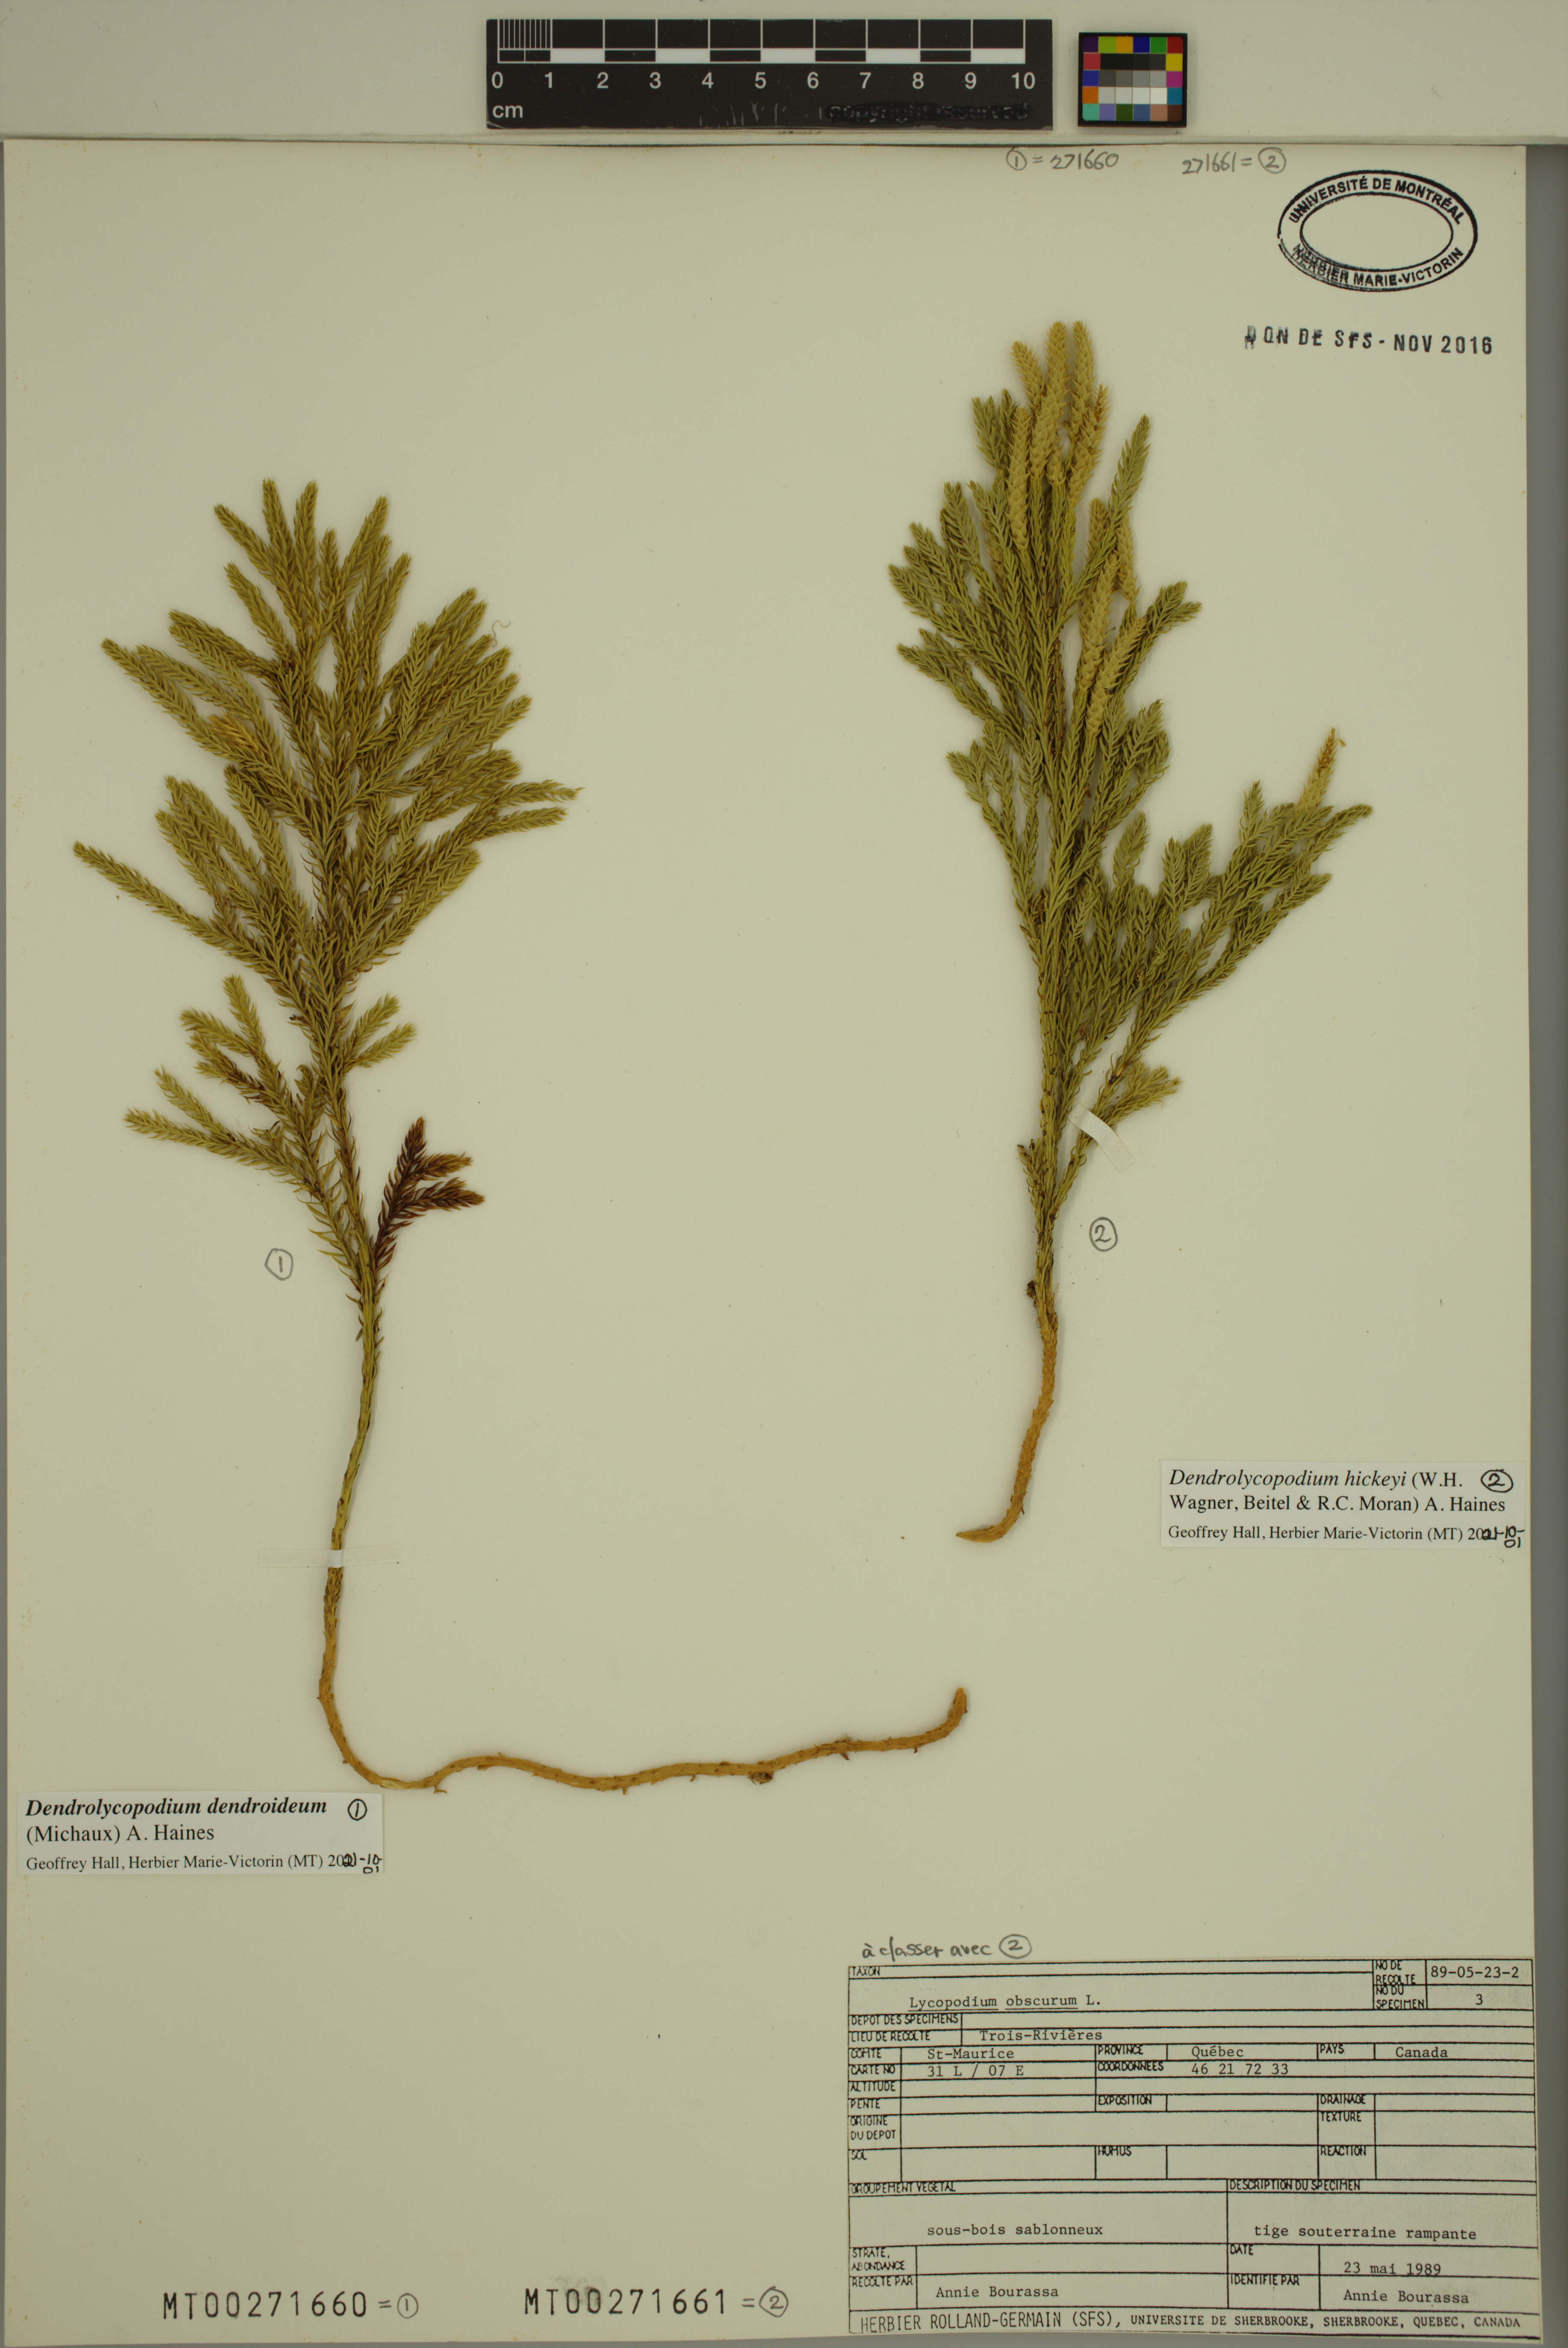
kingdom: Plantae
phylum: Tracheophyta
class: Lycopodiopsida
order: Lycopodiales
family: Lycopodiaceae
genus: Dendrolycopodium
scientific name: Dendrolycopodium hickeyi
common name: Hickey's clubmoss
